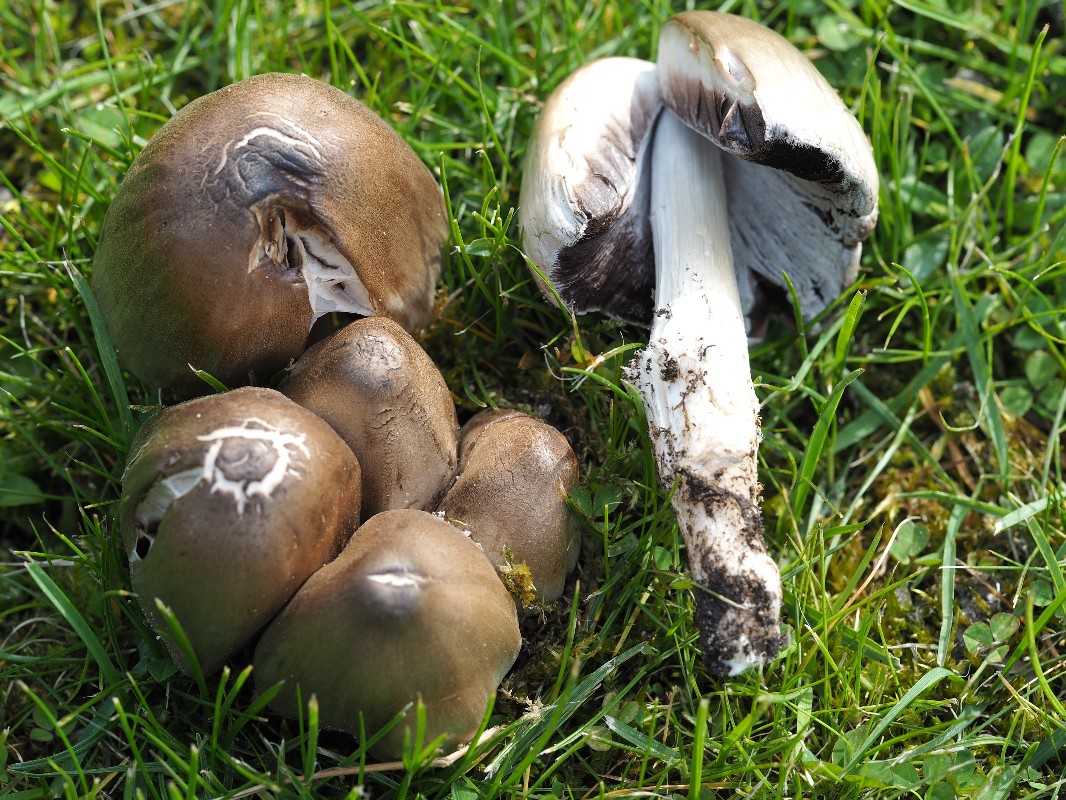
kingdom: Fungi
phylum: Basidiomycota
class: Agaricomycetes
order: Agaricales
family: Psathyrellaceae
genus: Coprinopsis
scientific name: Coprinopsis atramentaria
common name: almindelig blækhat
